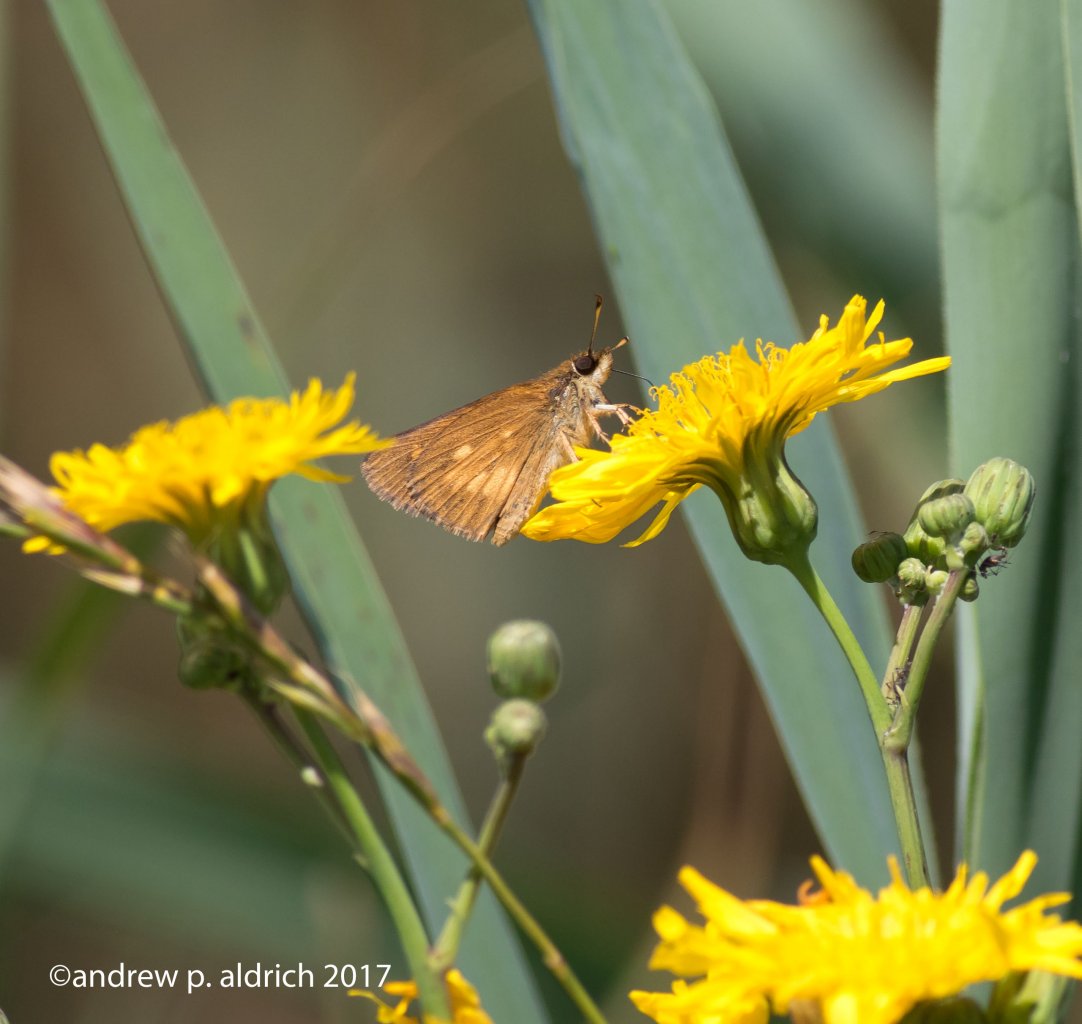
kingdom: Animalia
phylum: Arthropoda
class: Insecta
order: Lepidoptera
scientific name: Lepidoptera
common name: Butterflies
